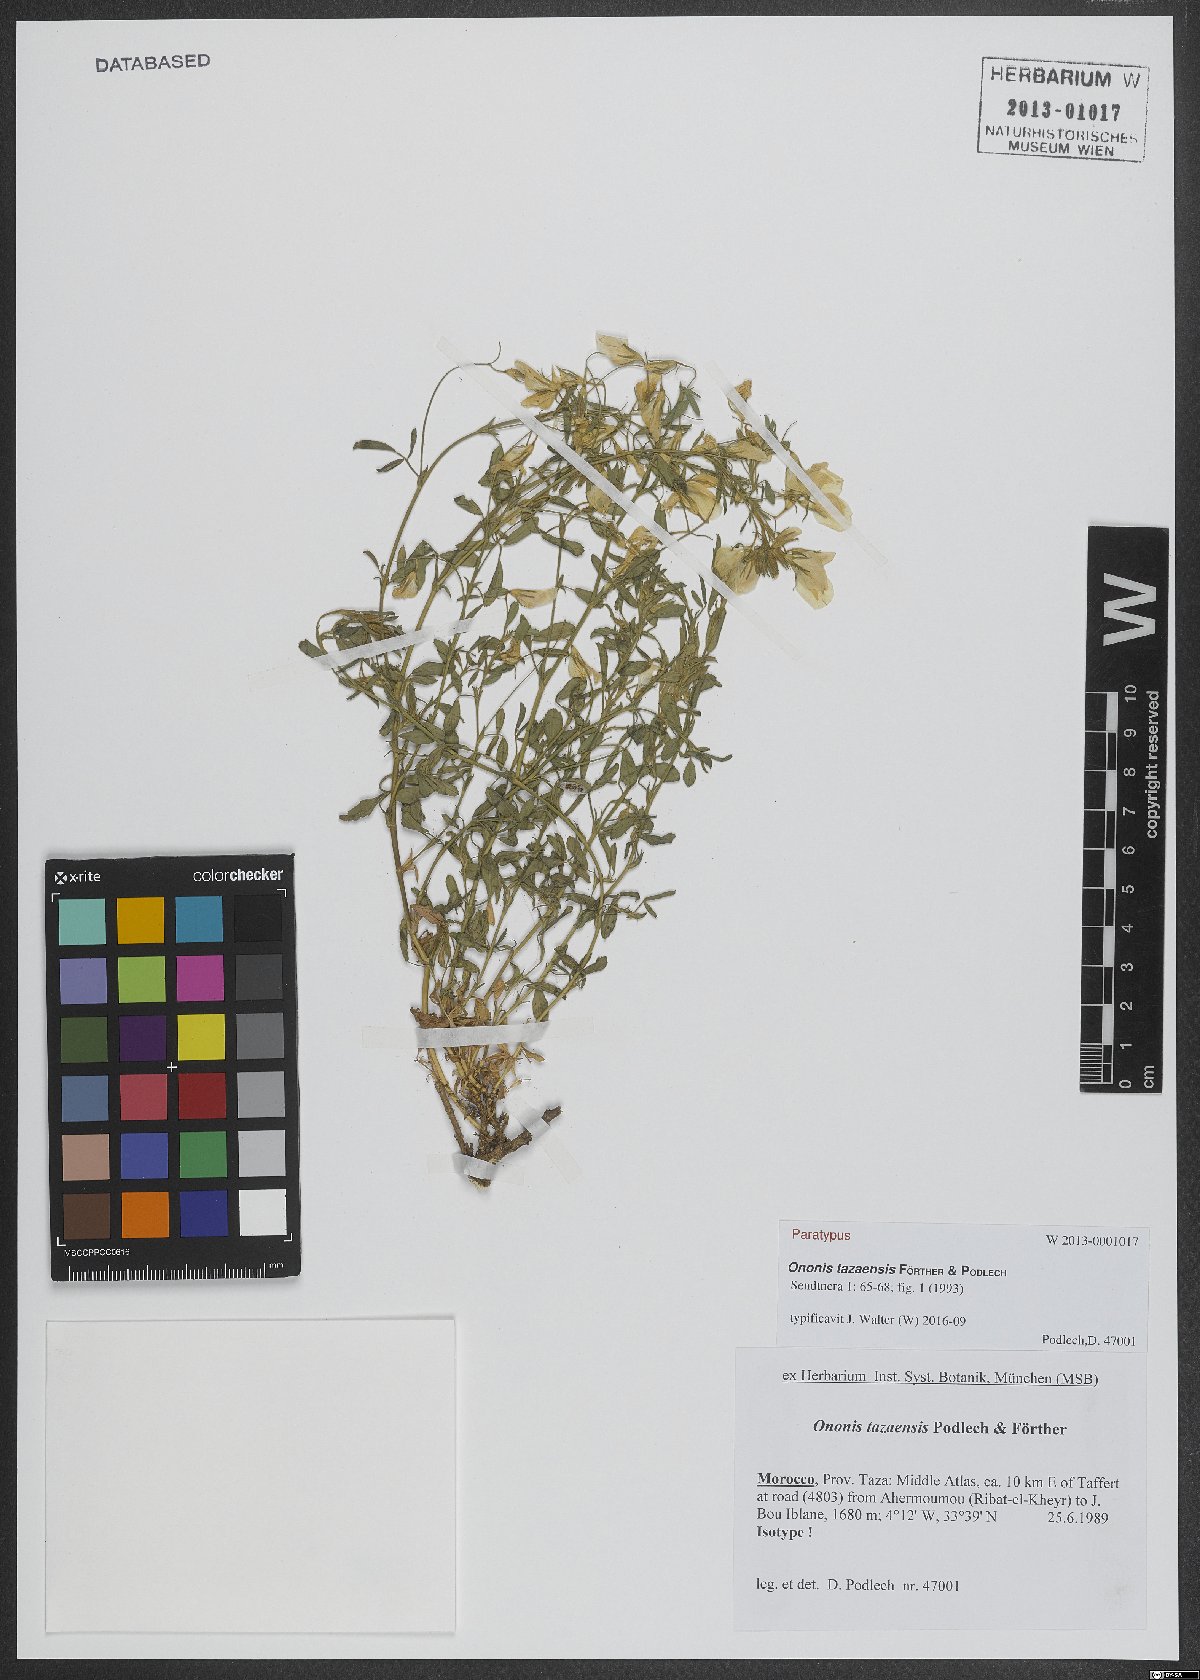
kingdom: Plantae
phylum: Tracheophyta
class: Magnoliopsida
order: Fabales
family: Fabaceae
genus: Ononis
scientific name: Ononis tazaensis
